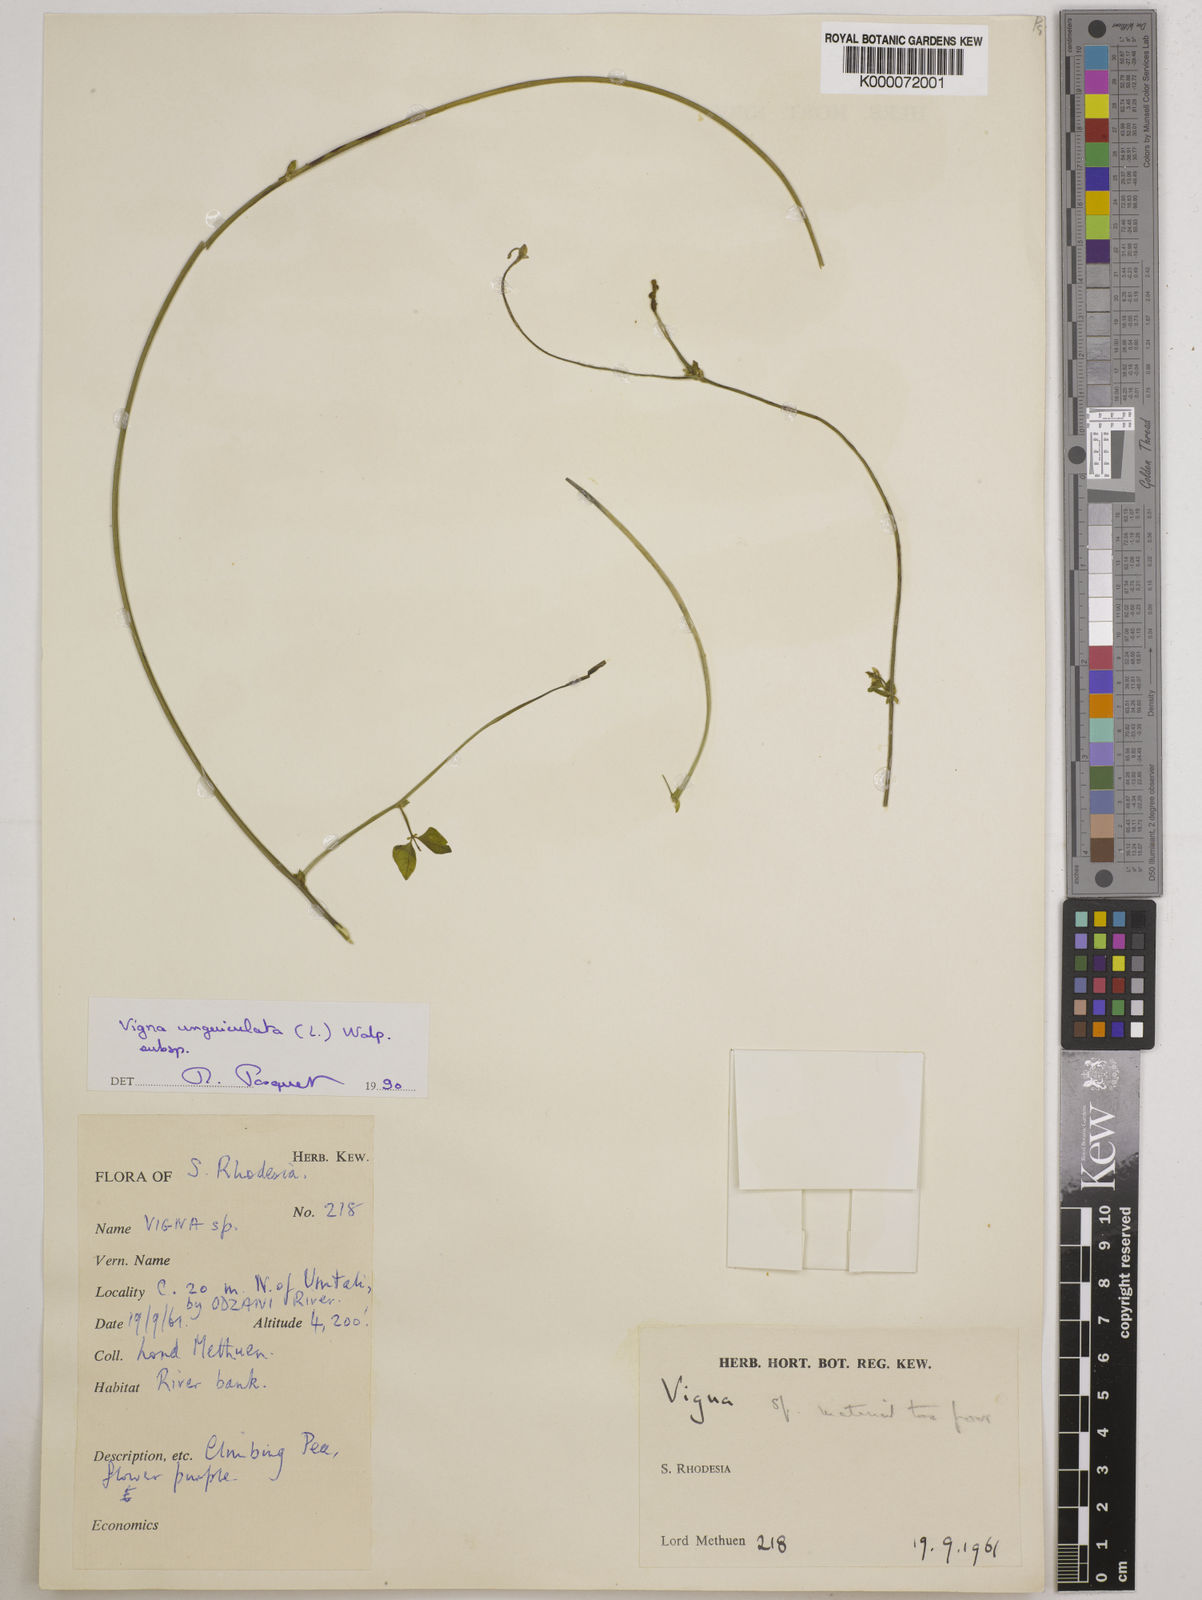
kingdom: Plantae
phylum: Tracheophyta
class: Magnoliopsida
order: Fabales
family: Fabaceae
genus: Vigna
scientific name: Vigna unguiculata
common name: Cowpea
